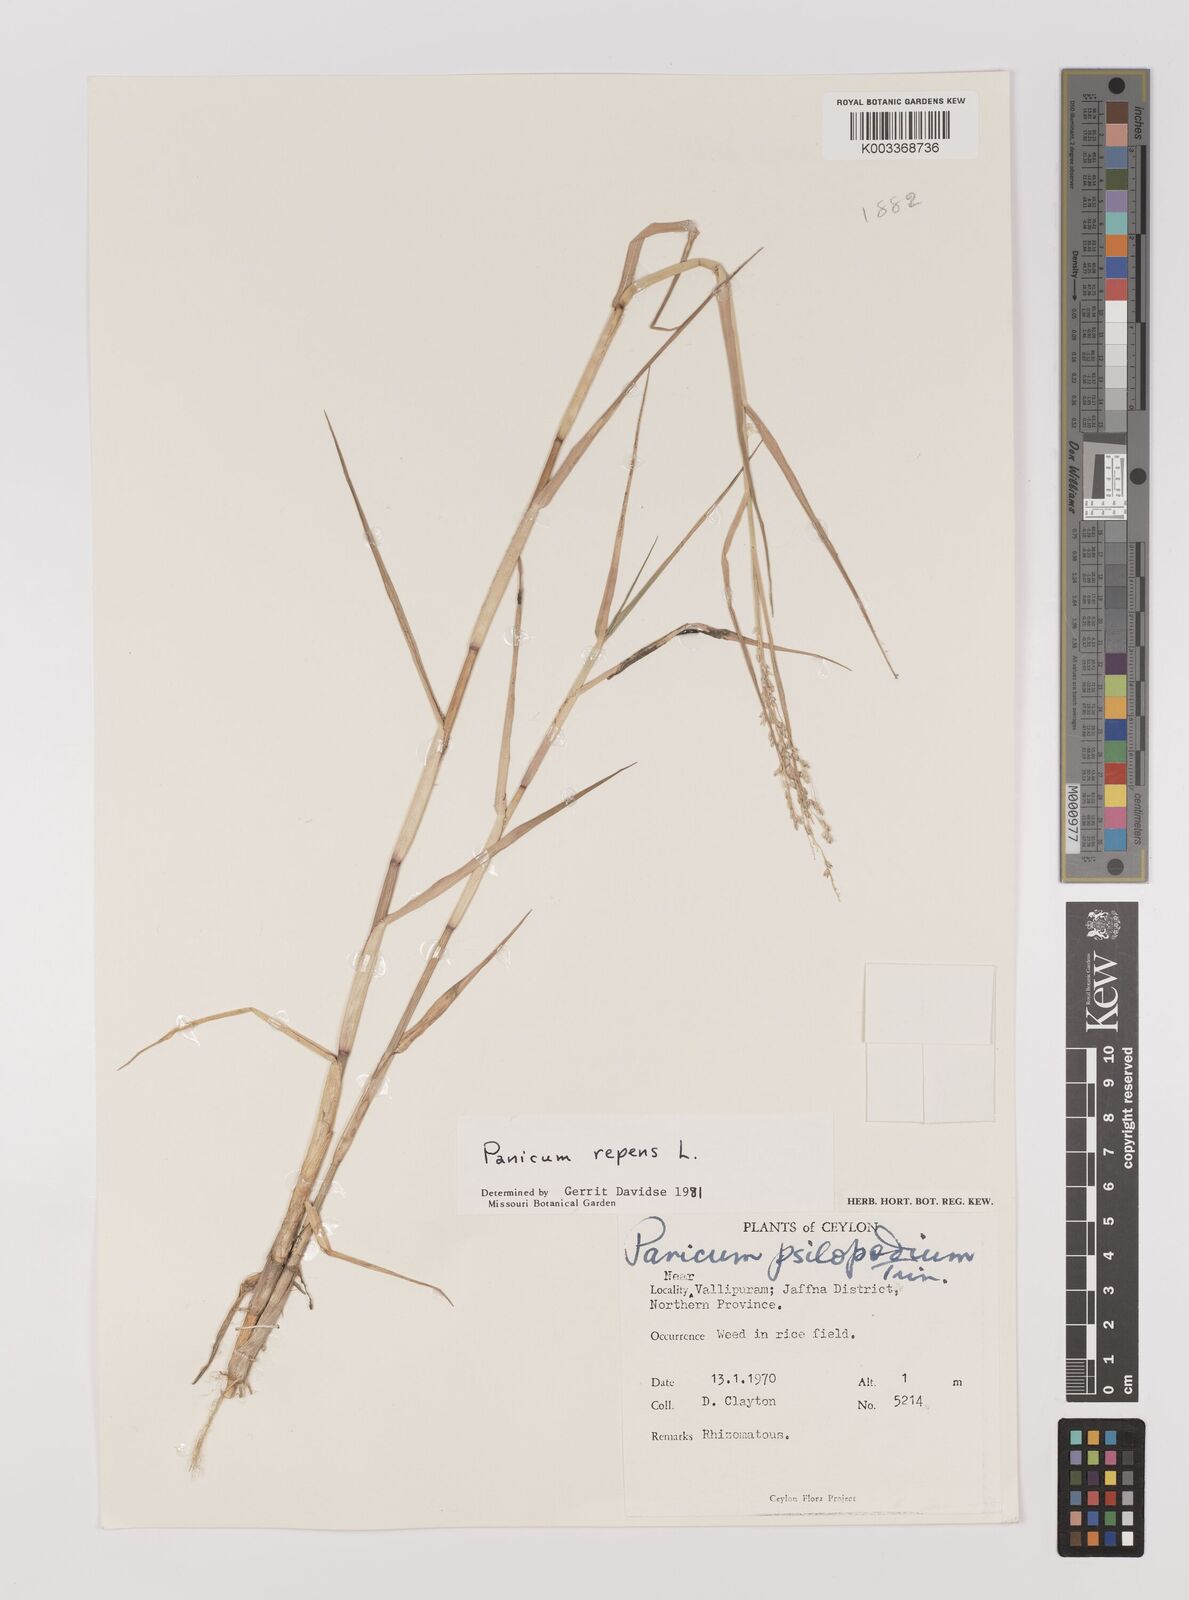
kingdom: Plantae
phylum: Tracheophyta
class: Liliopsida
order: Poales
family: Poaceae
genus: Panicum
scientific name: Panicum repens
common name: Torpedo grass
